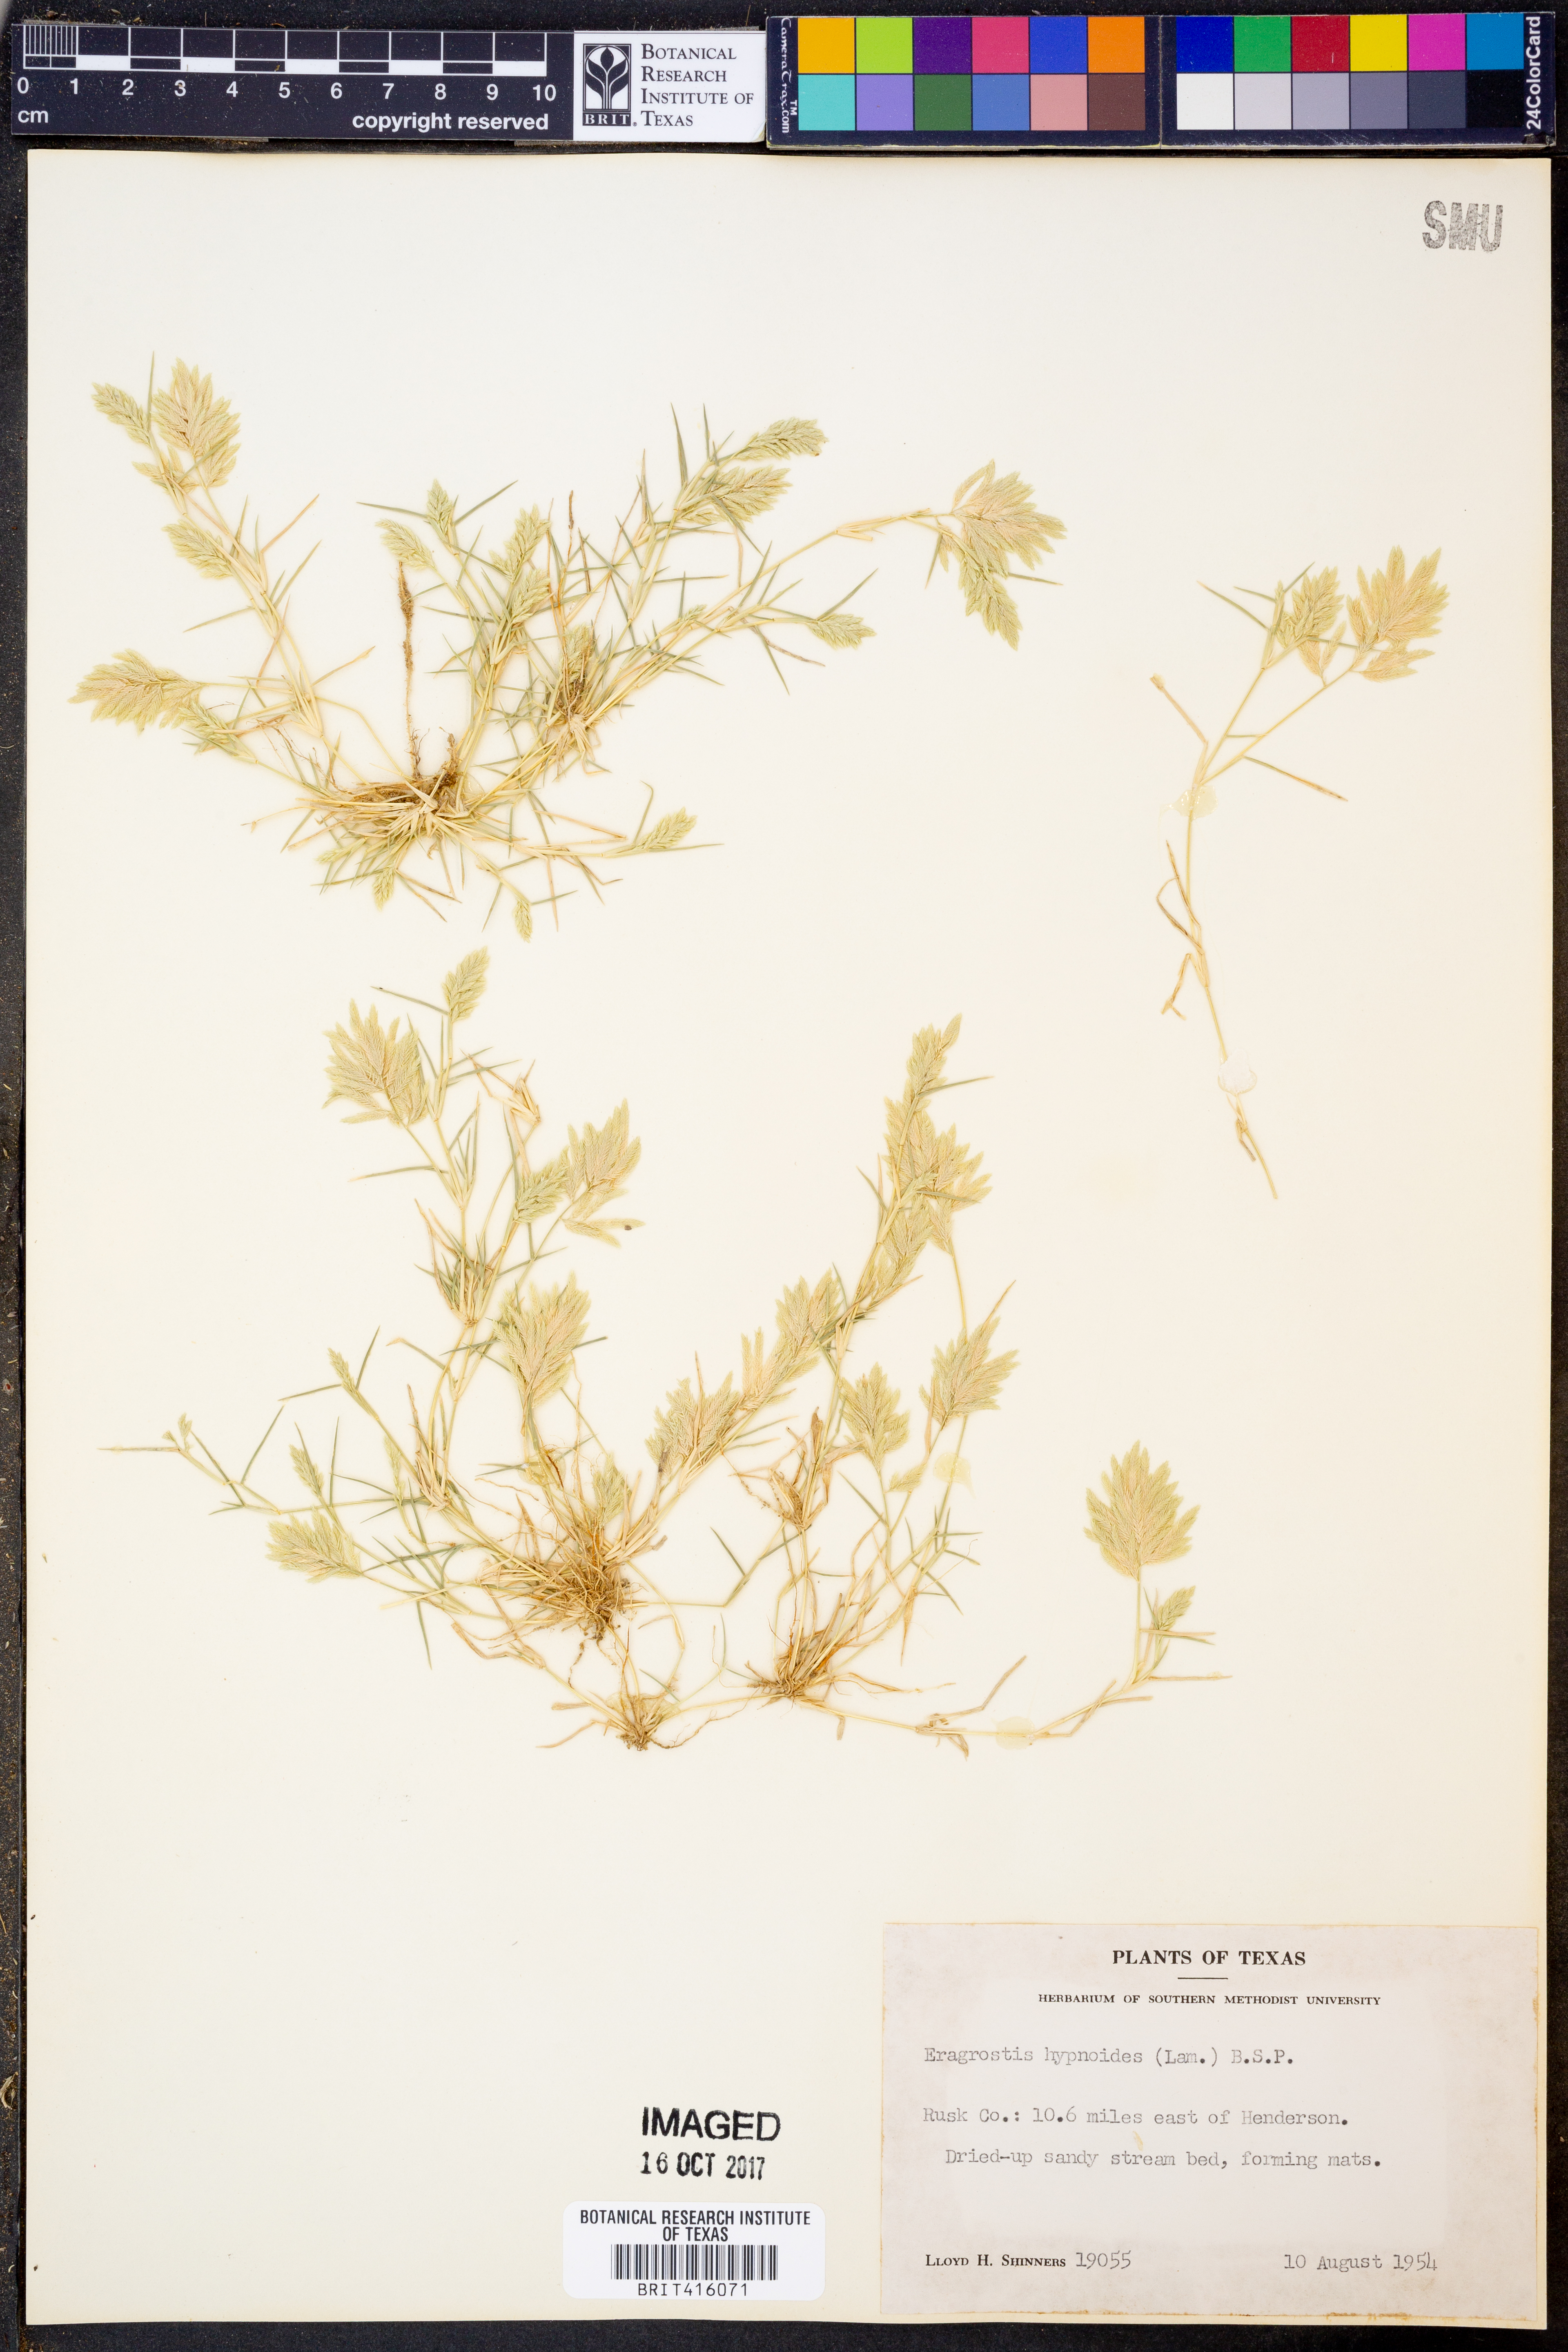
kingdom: Plantae
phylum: Tracheophyta
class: Liliopsida
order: Poales
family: Poaceae
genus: Eragrostis
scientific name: Eragrostis hypnoides
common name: Creeping love grass
